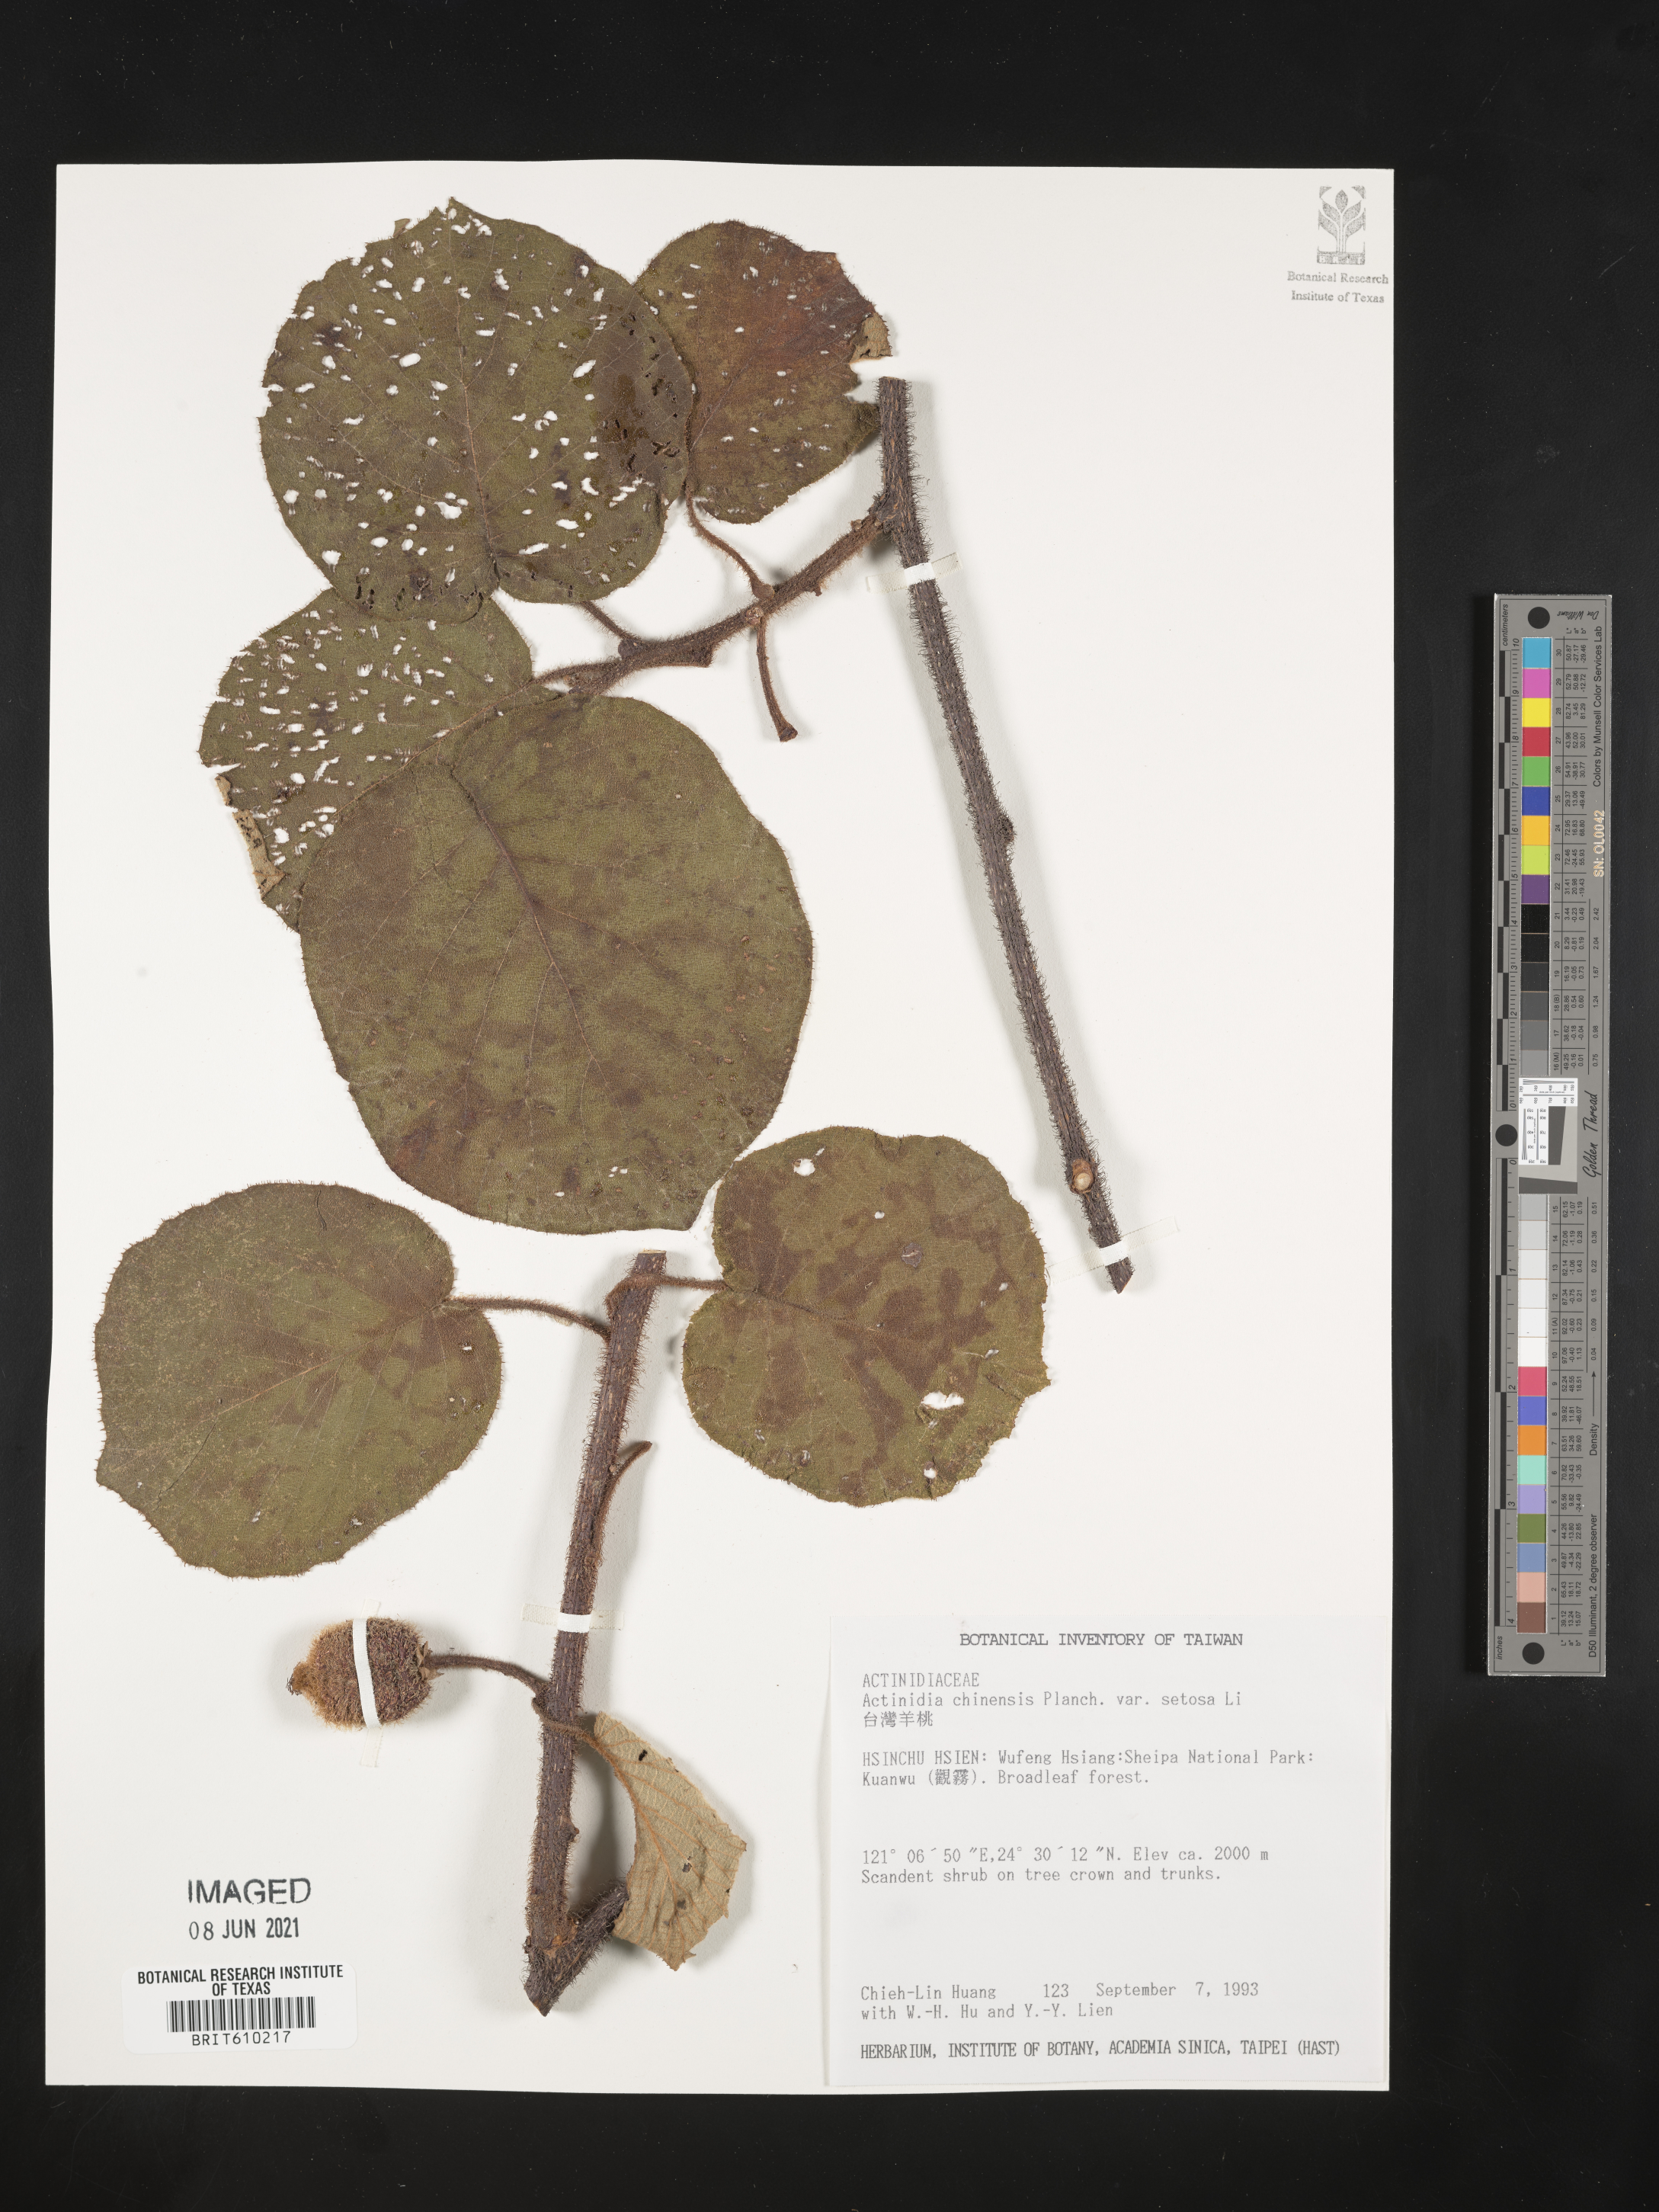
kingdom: Plantae
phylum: Tracheophyta
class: Magnoliopsida
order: Ericales
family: Actinidiaceae
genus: Actinidia
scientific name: Actinidia chinensis
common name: Kiwi
